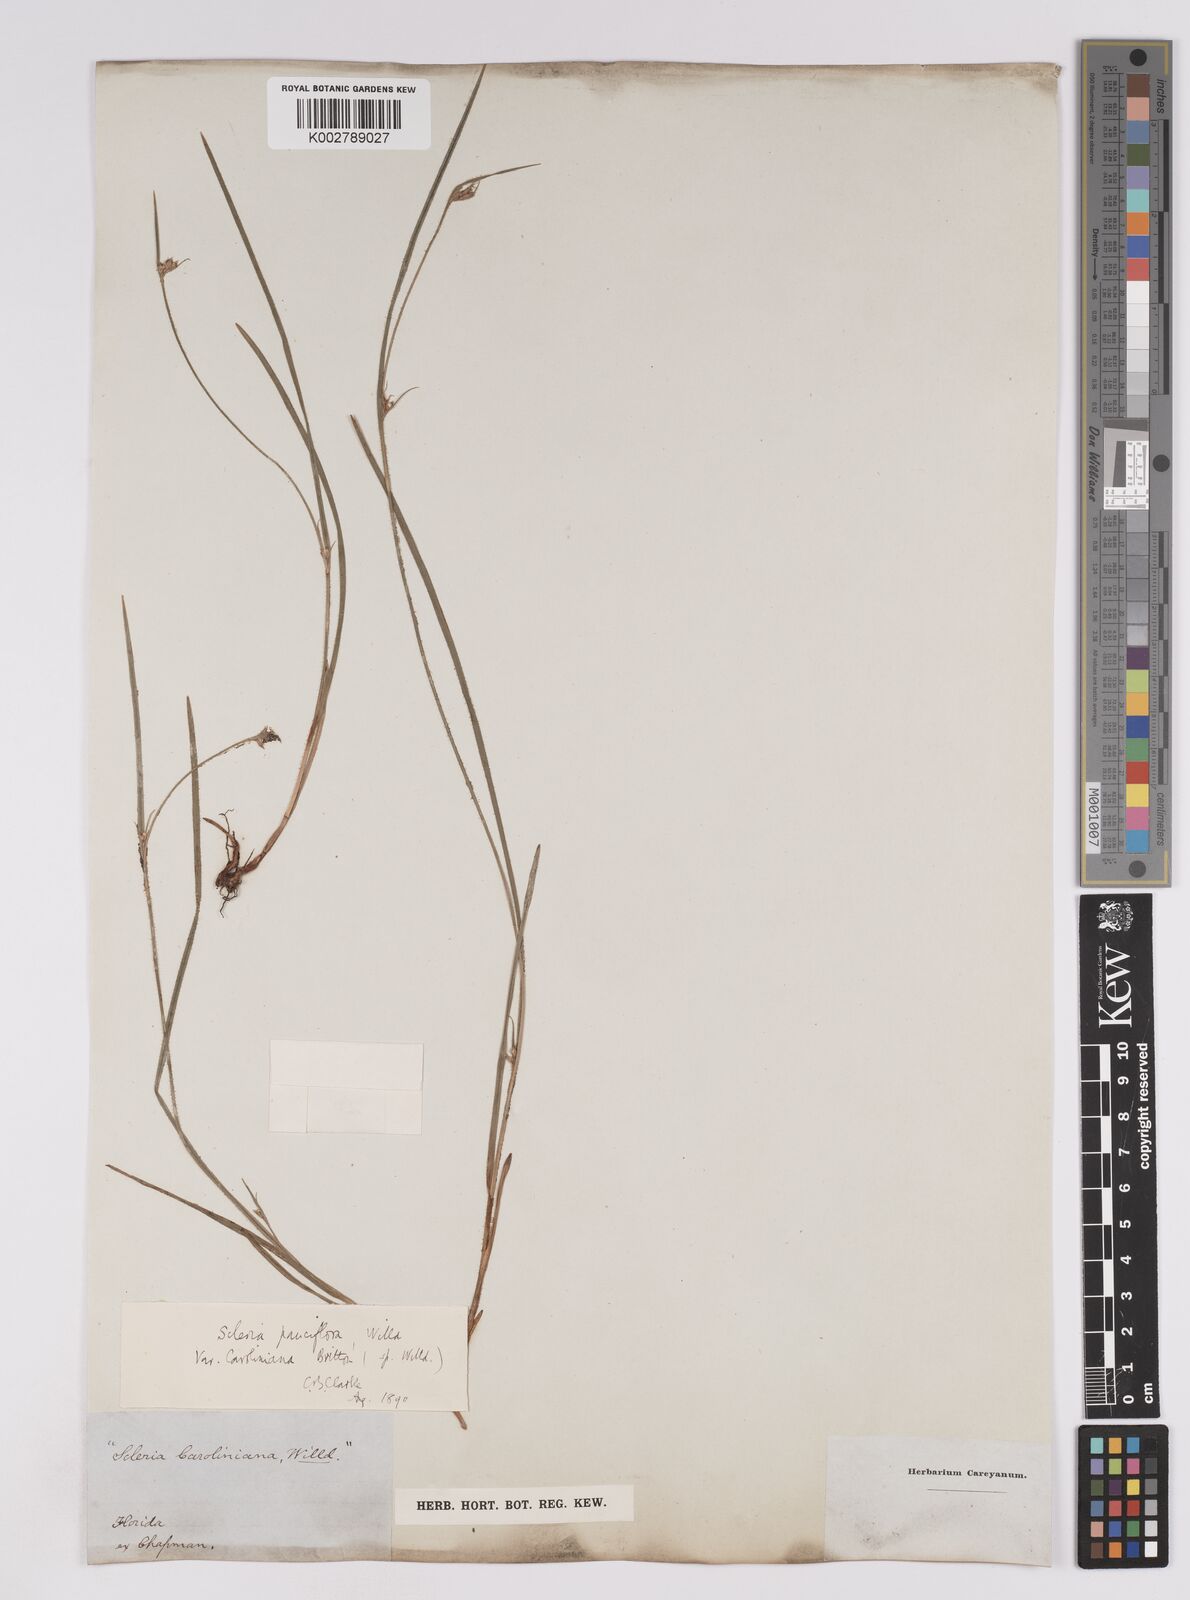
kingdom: Plantae
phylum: Tracheophyta
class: Liliopsida
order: Poales
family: Cyperaceae
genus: Scleria
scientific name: Scleria pauciflora
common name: Few-flowered nutrush
